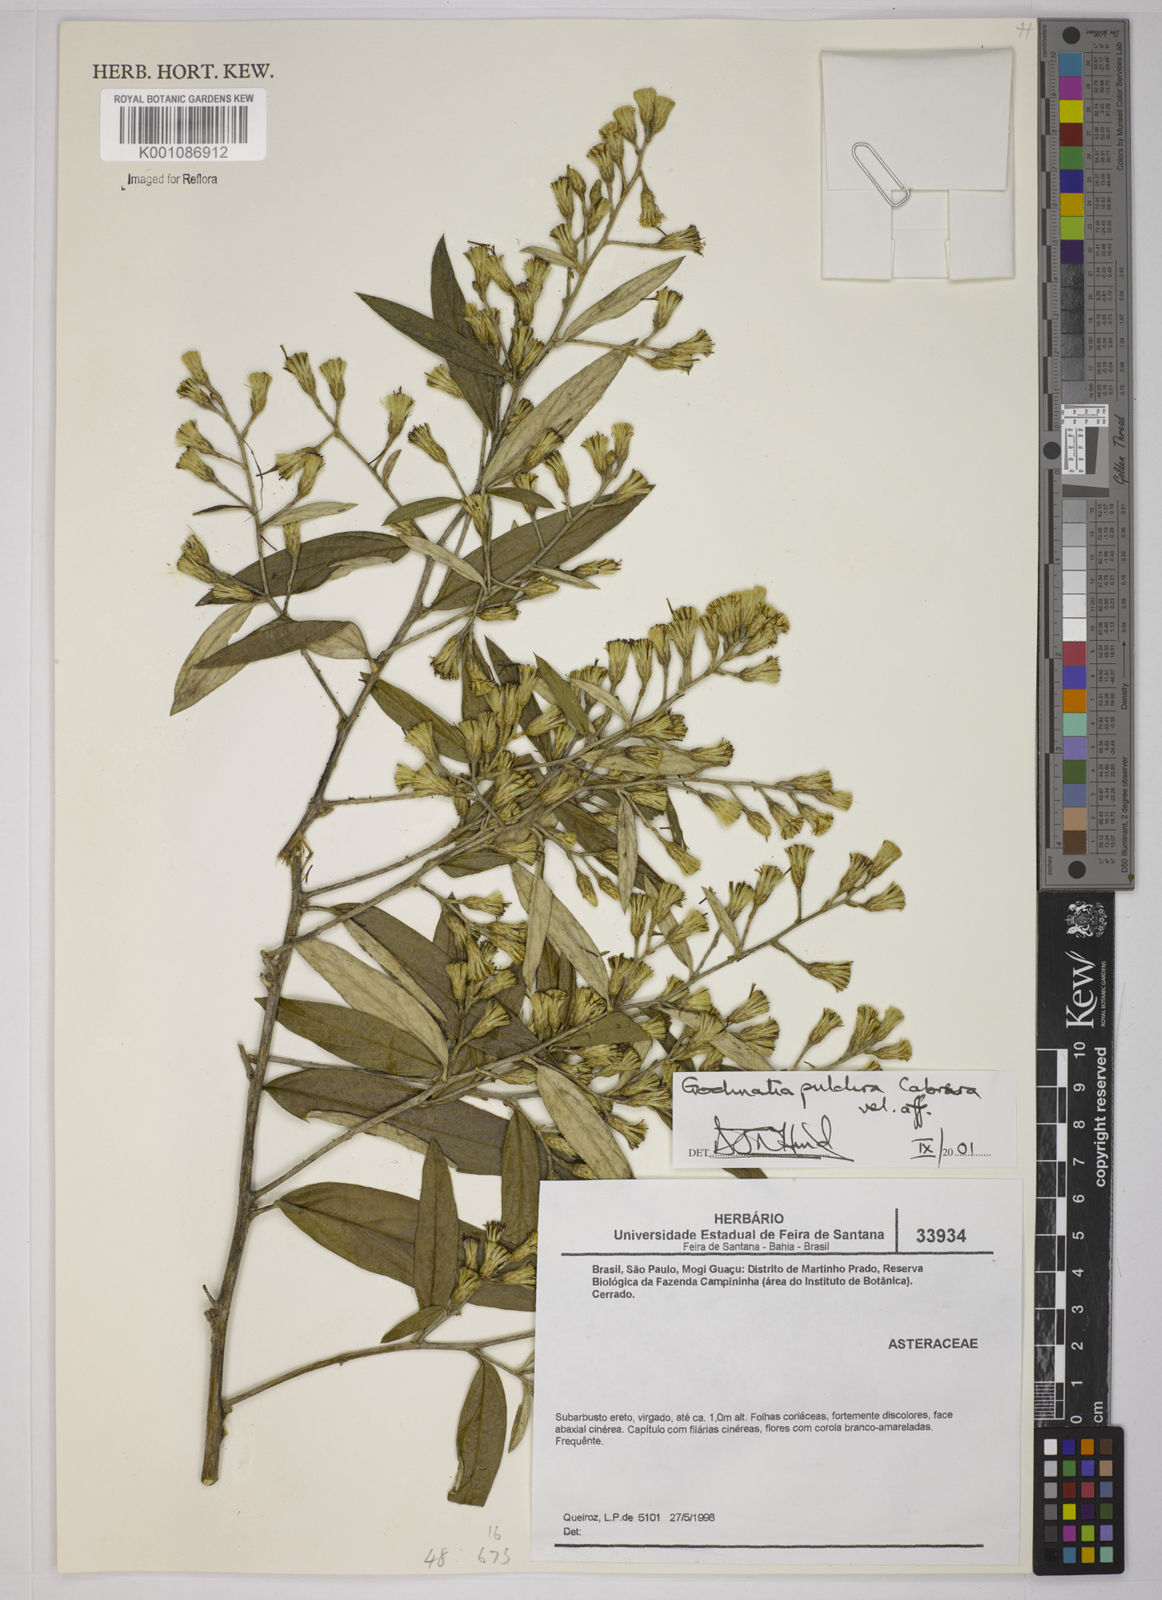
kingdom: Plantae
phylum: Tracheophyta
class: Magnoliopsida
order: Asterales
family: Asteraceae
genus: Moquiniastrum
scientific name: Moquiniastrum pulchrum
